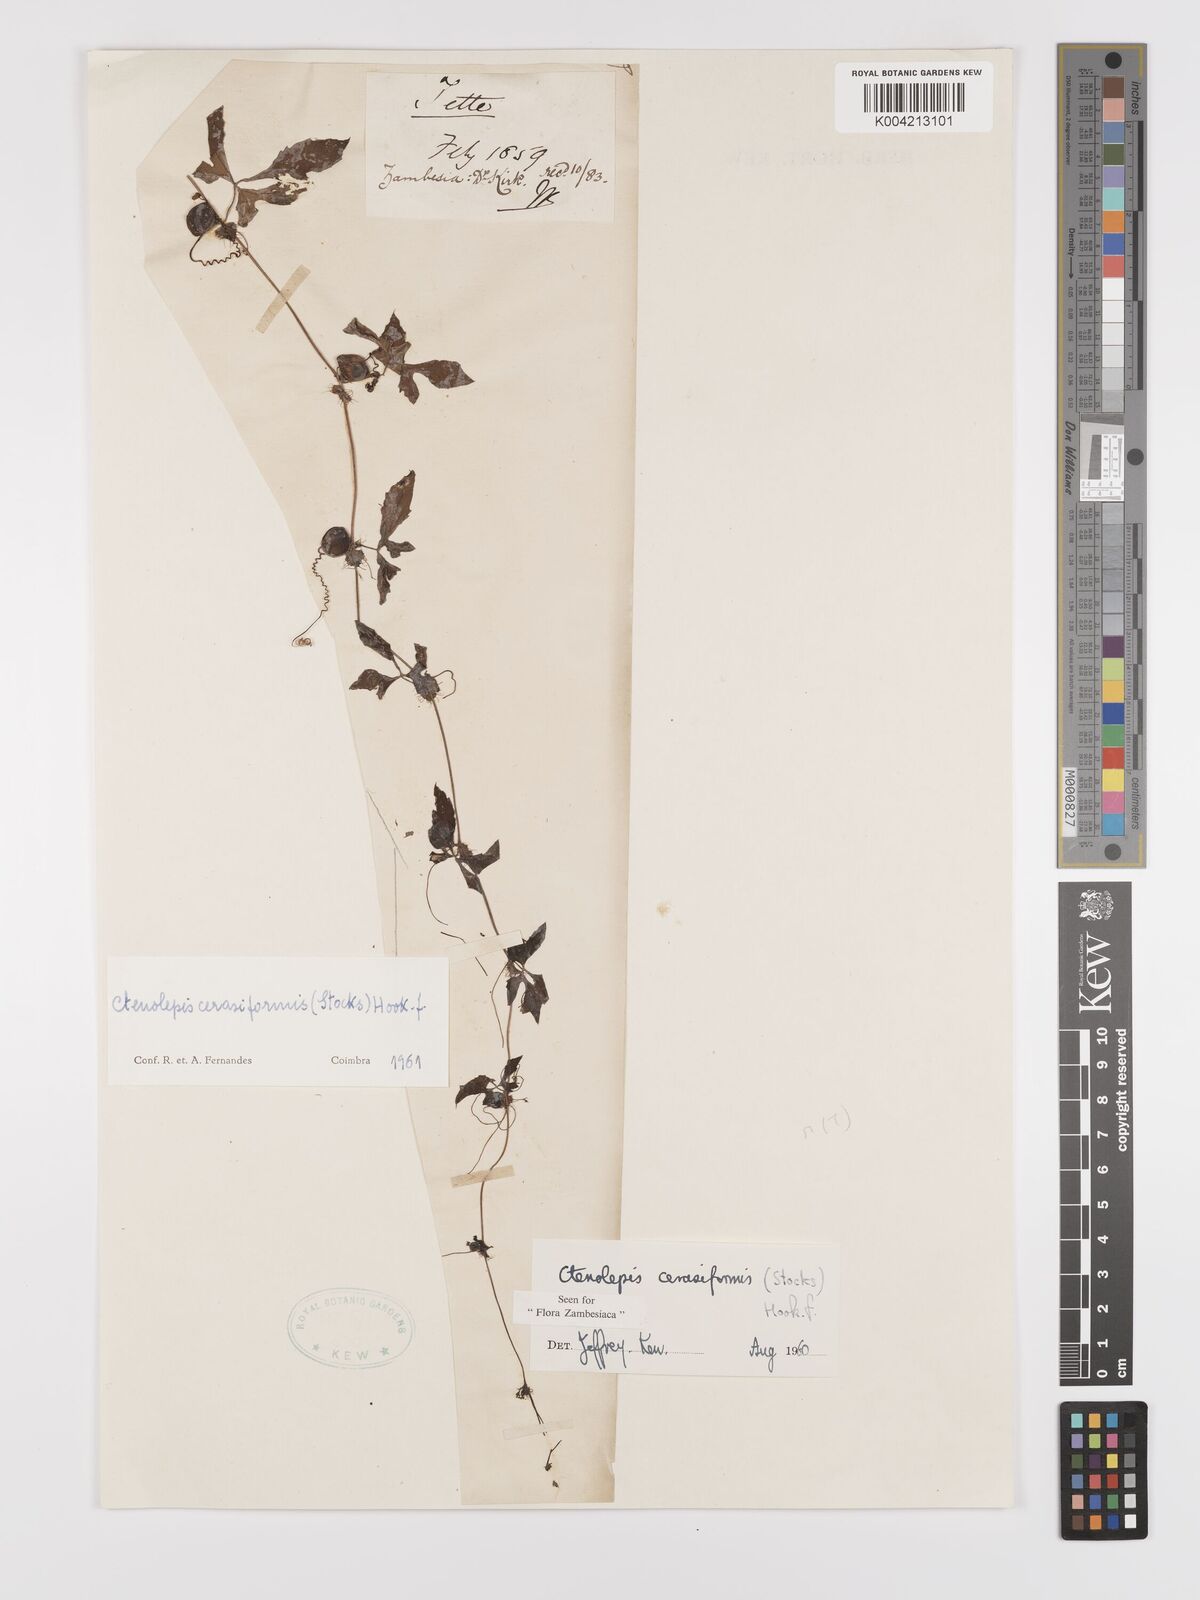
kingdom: Plantae
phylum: Tracheophyta
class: Magnoliopsida
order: Cucurbitales
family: Cucurbitaceae
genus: Blastania
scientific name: Blastania cerasiformis
